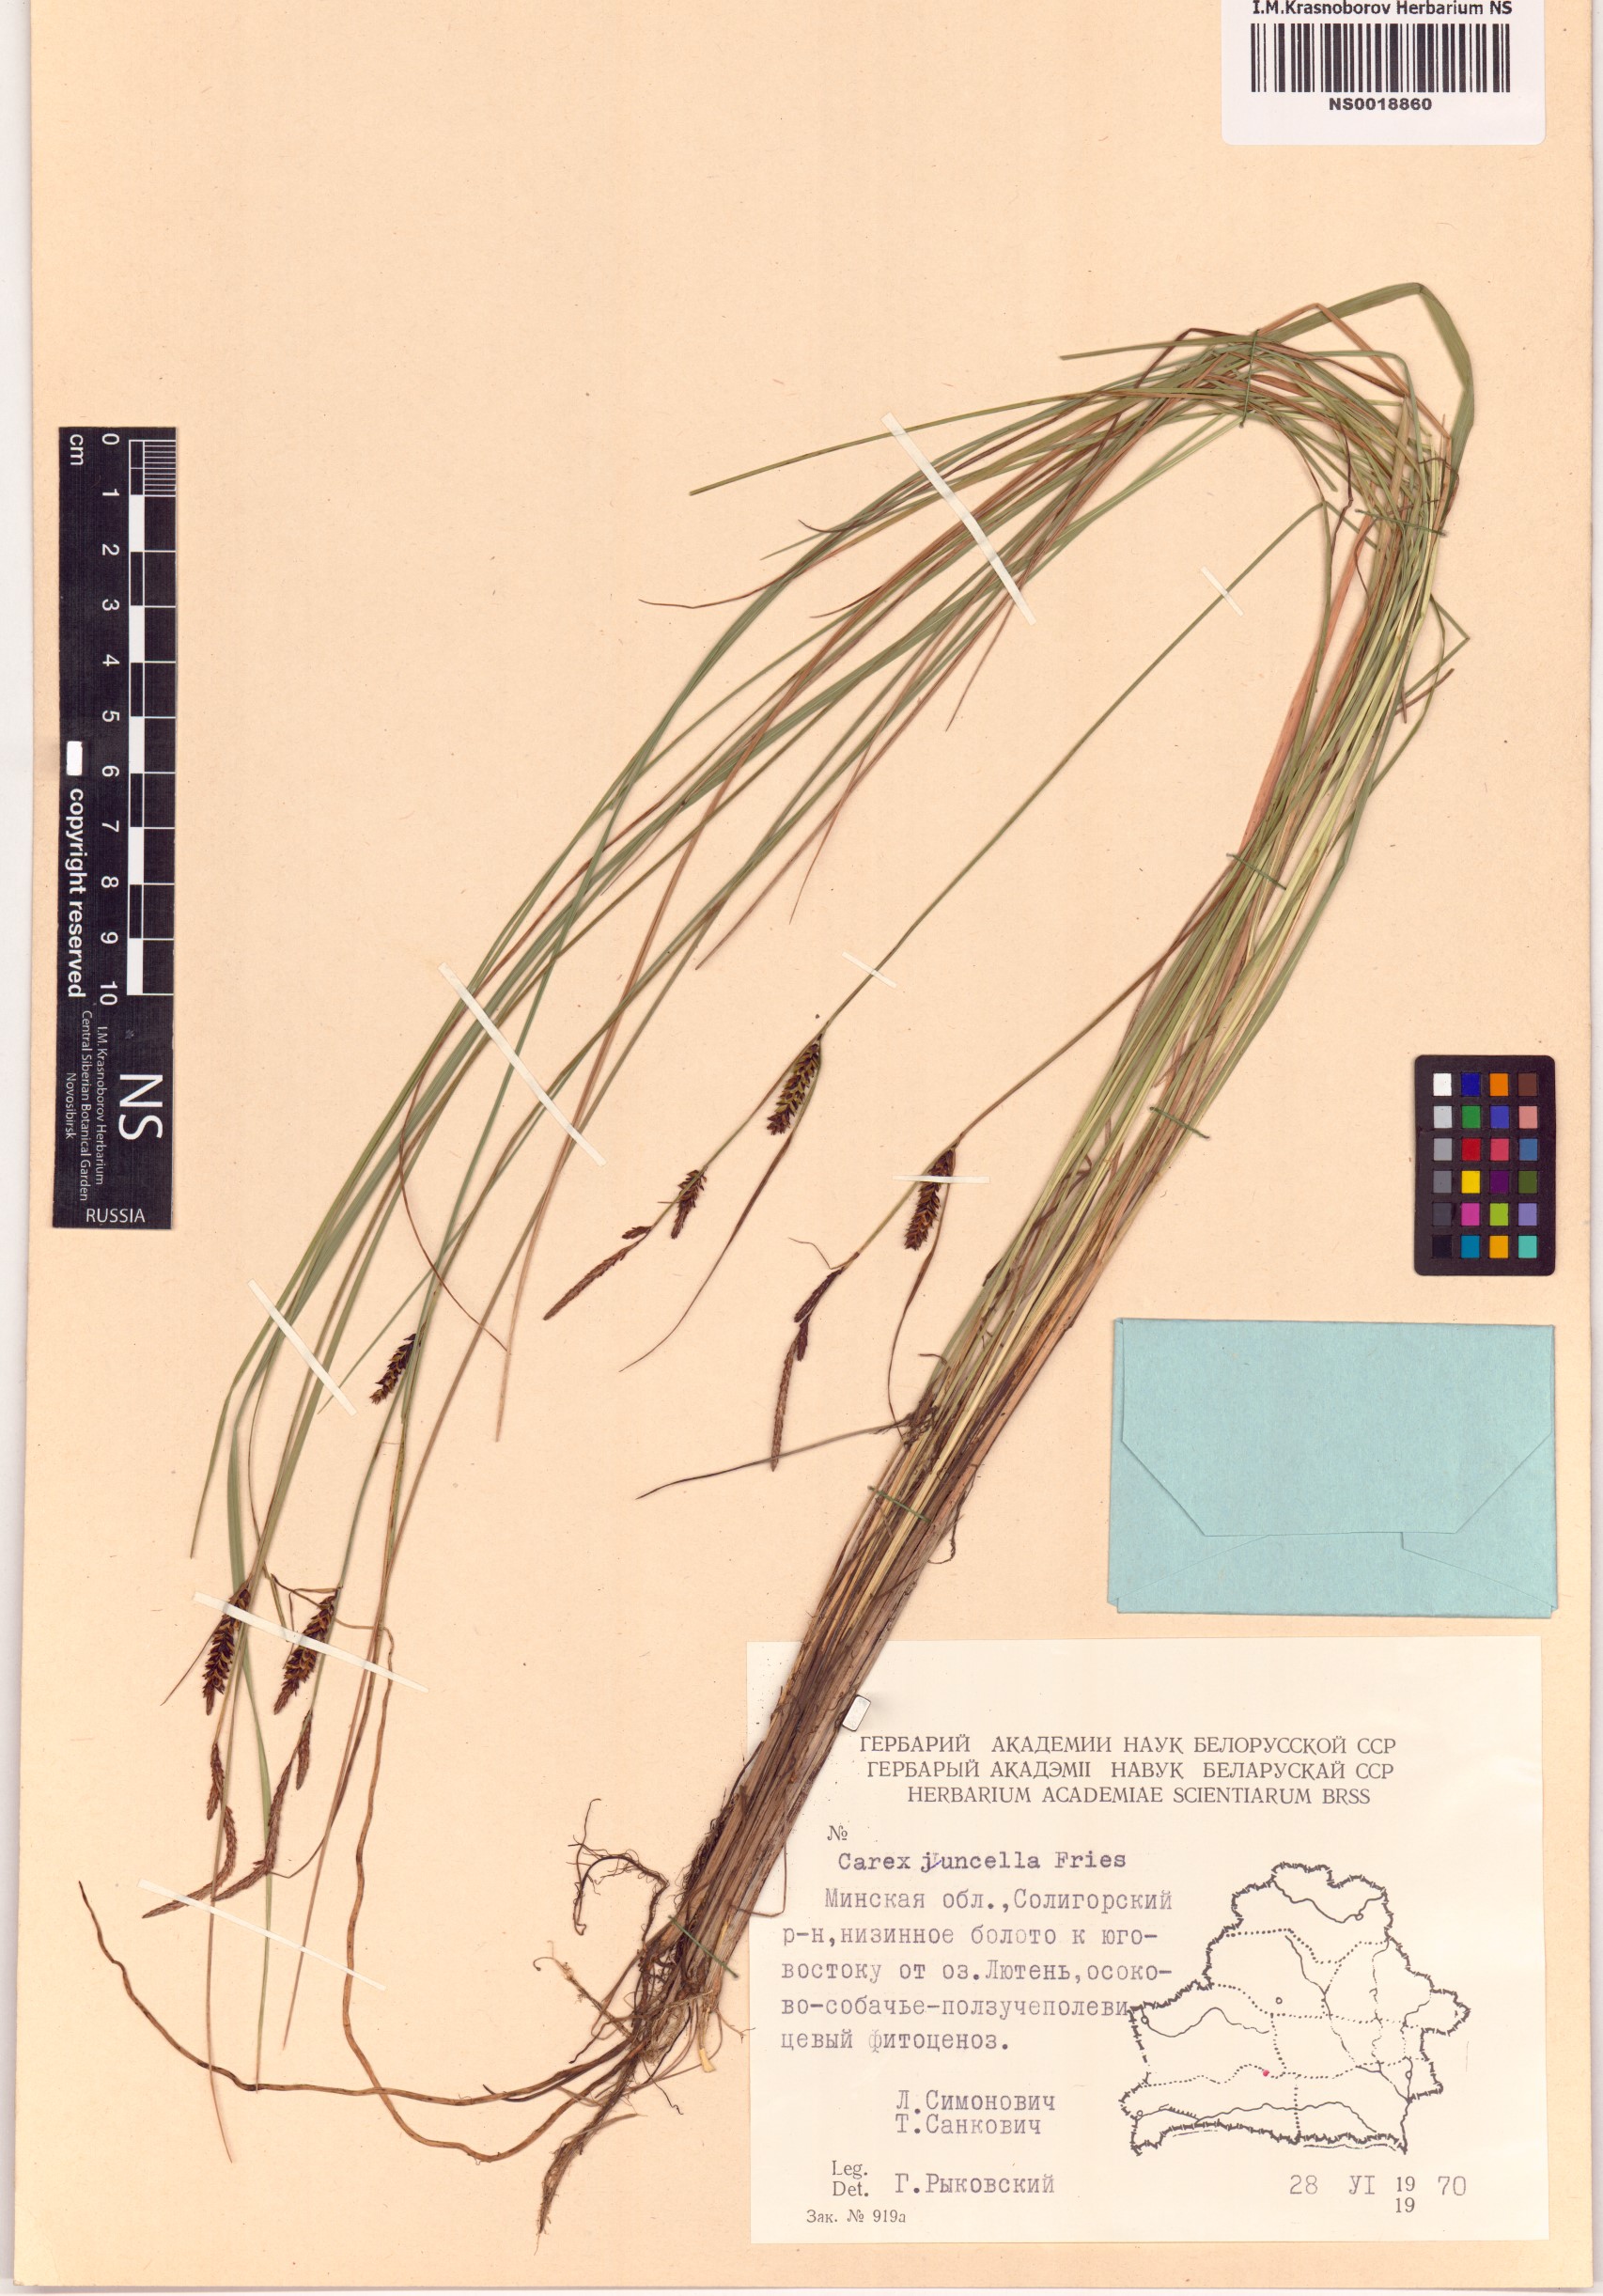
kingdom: Plantae
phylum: Tracheophyta
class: Liliopsida
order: Poales
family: Cyperaceae
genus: Carex
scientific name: Carex nigra
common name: Common sedge
